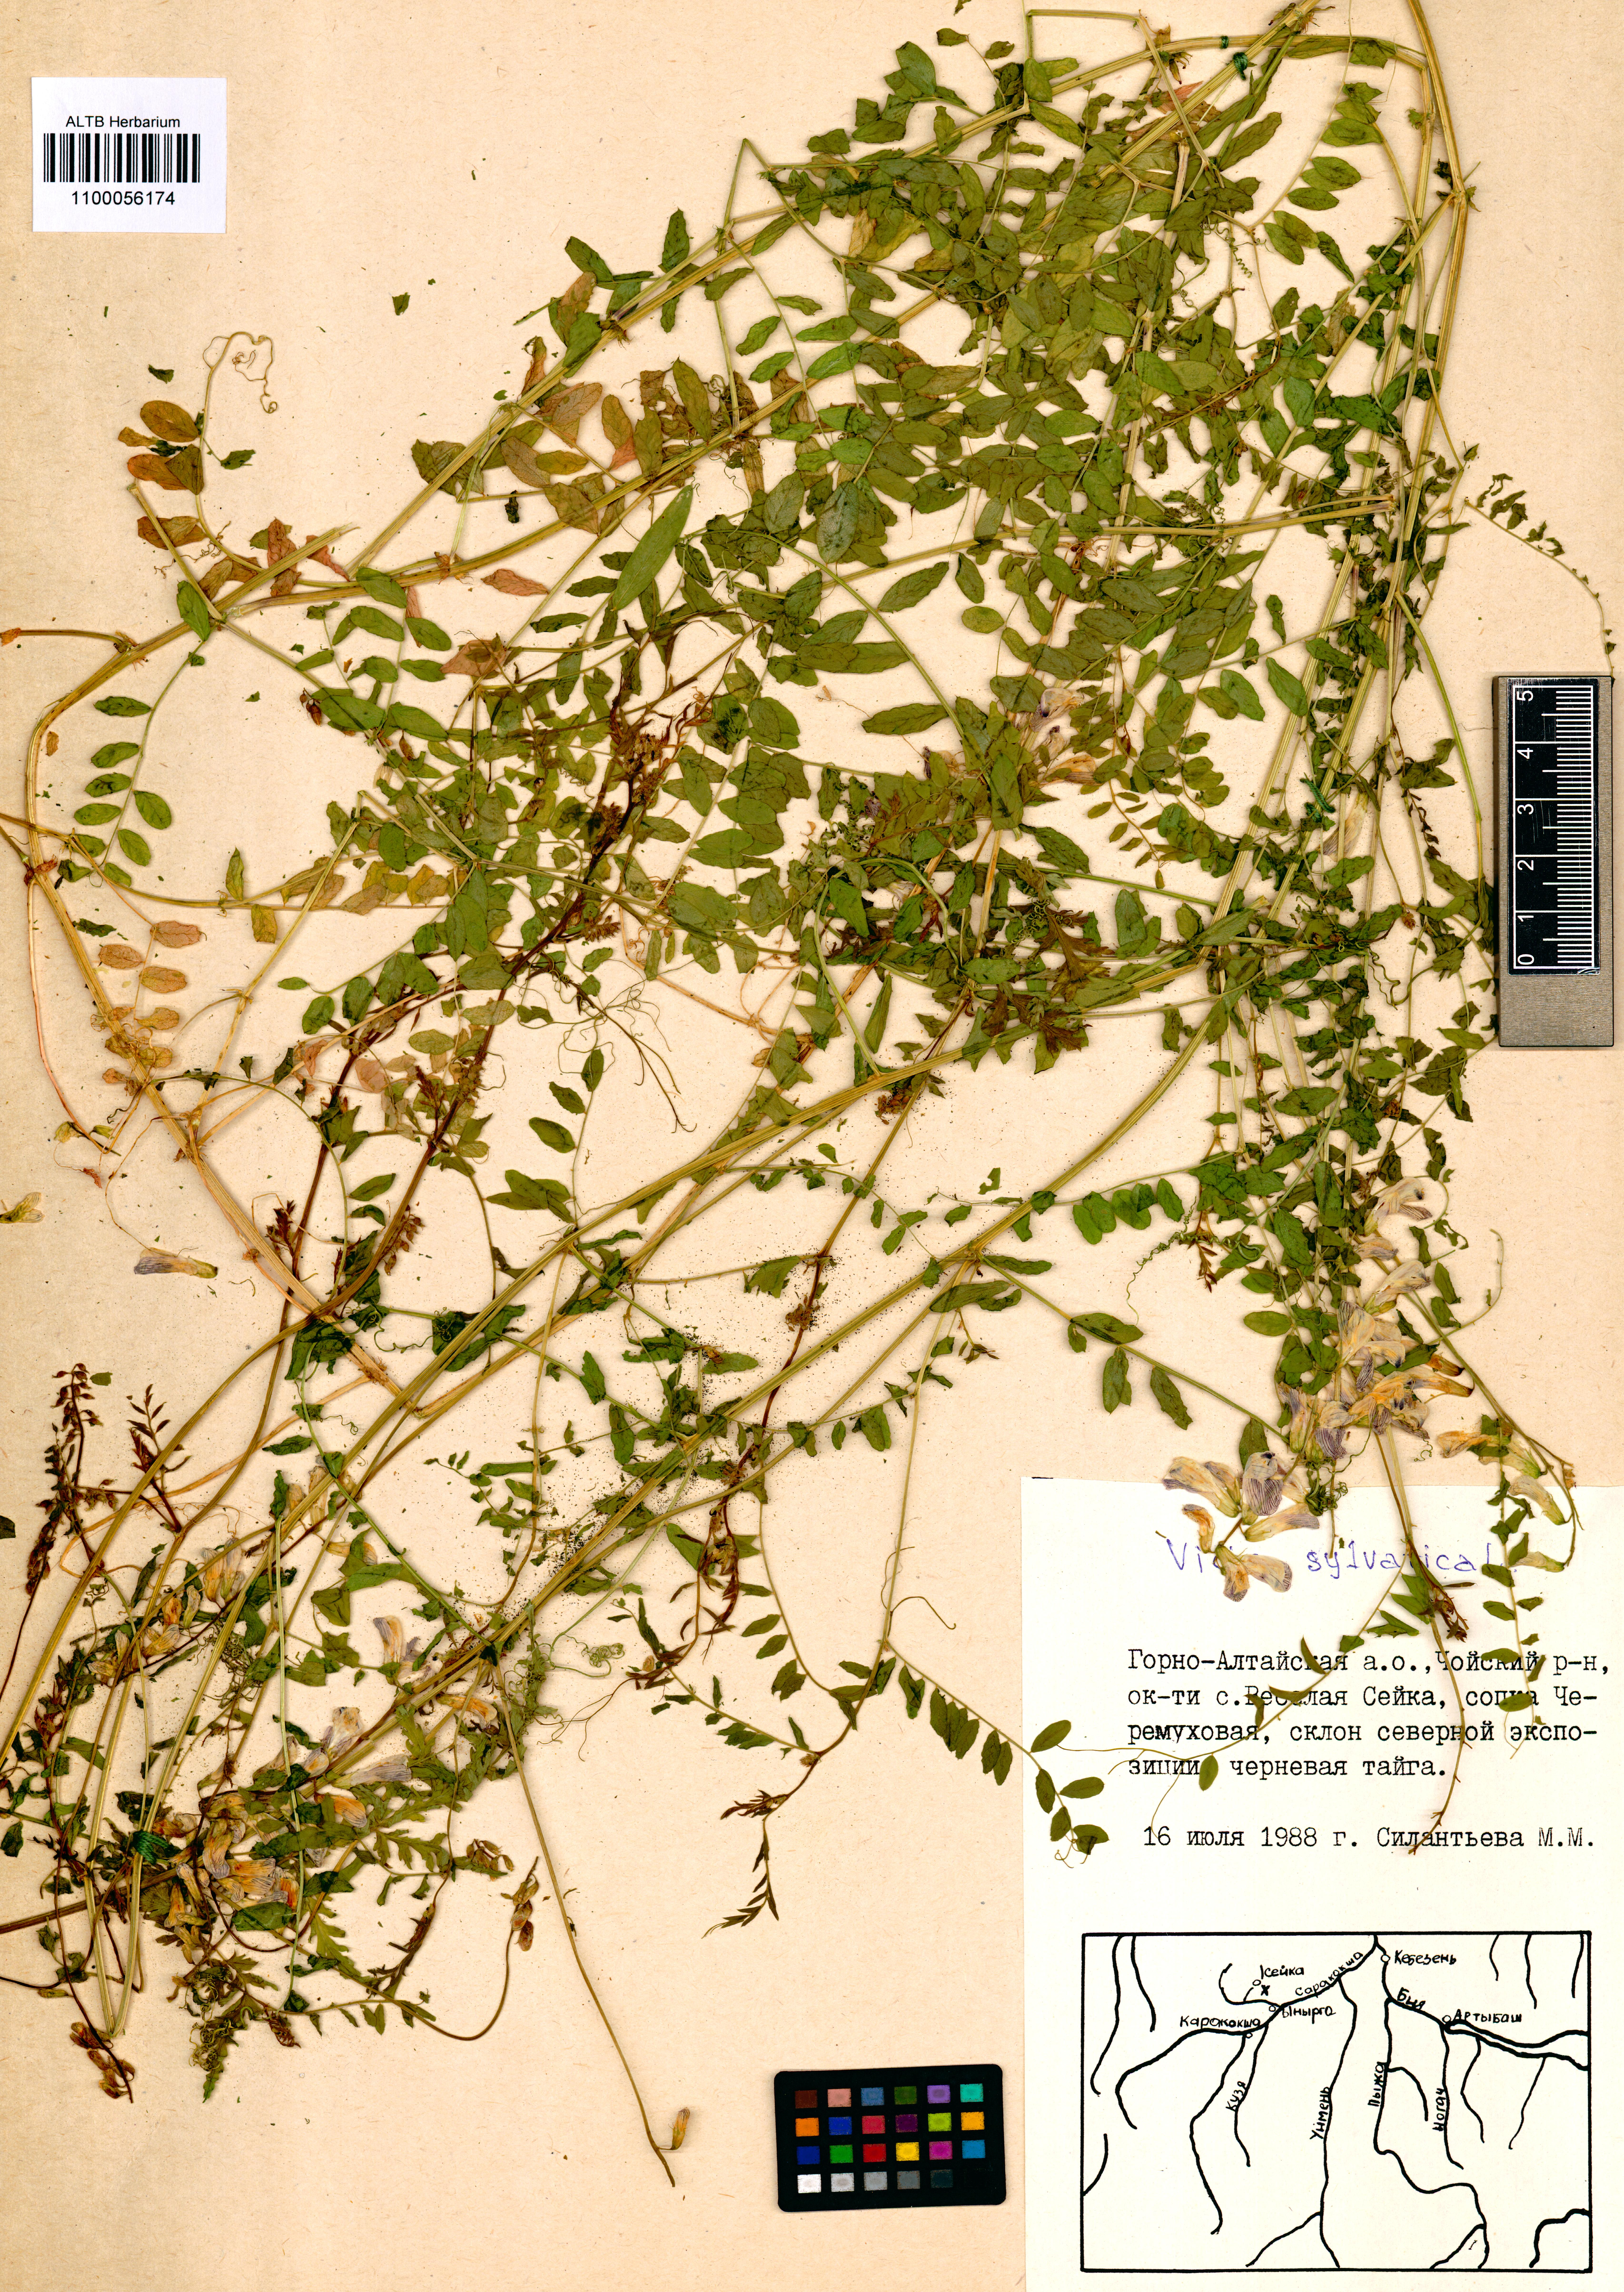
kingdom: Plantae
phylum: Tracheophyta
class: Magnoliopsida
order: Fabales
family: Fabaceae
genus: Vicia
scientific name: Vicia sylvatica
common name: Wood vetch
